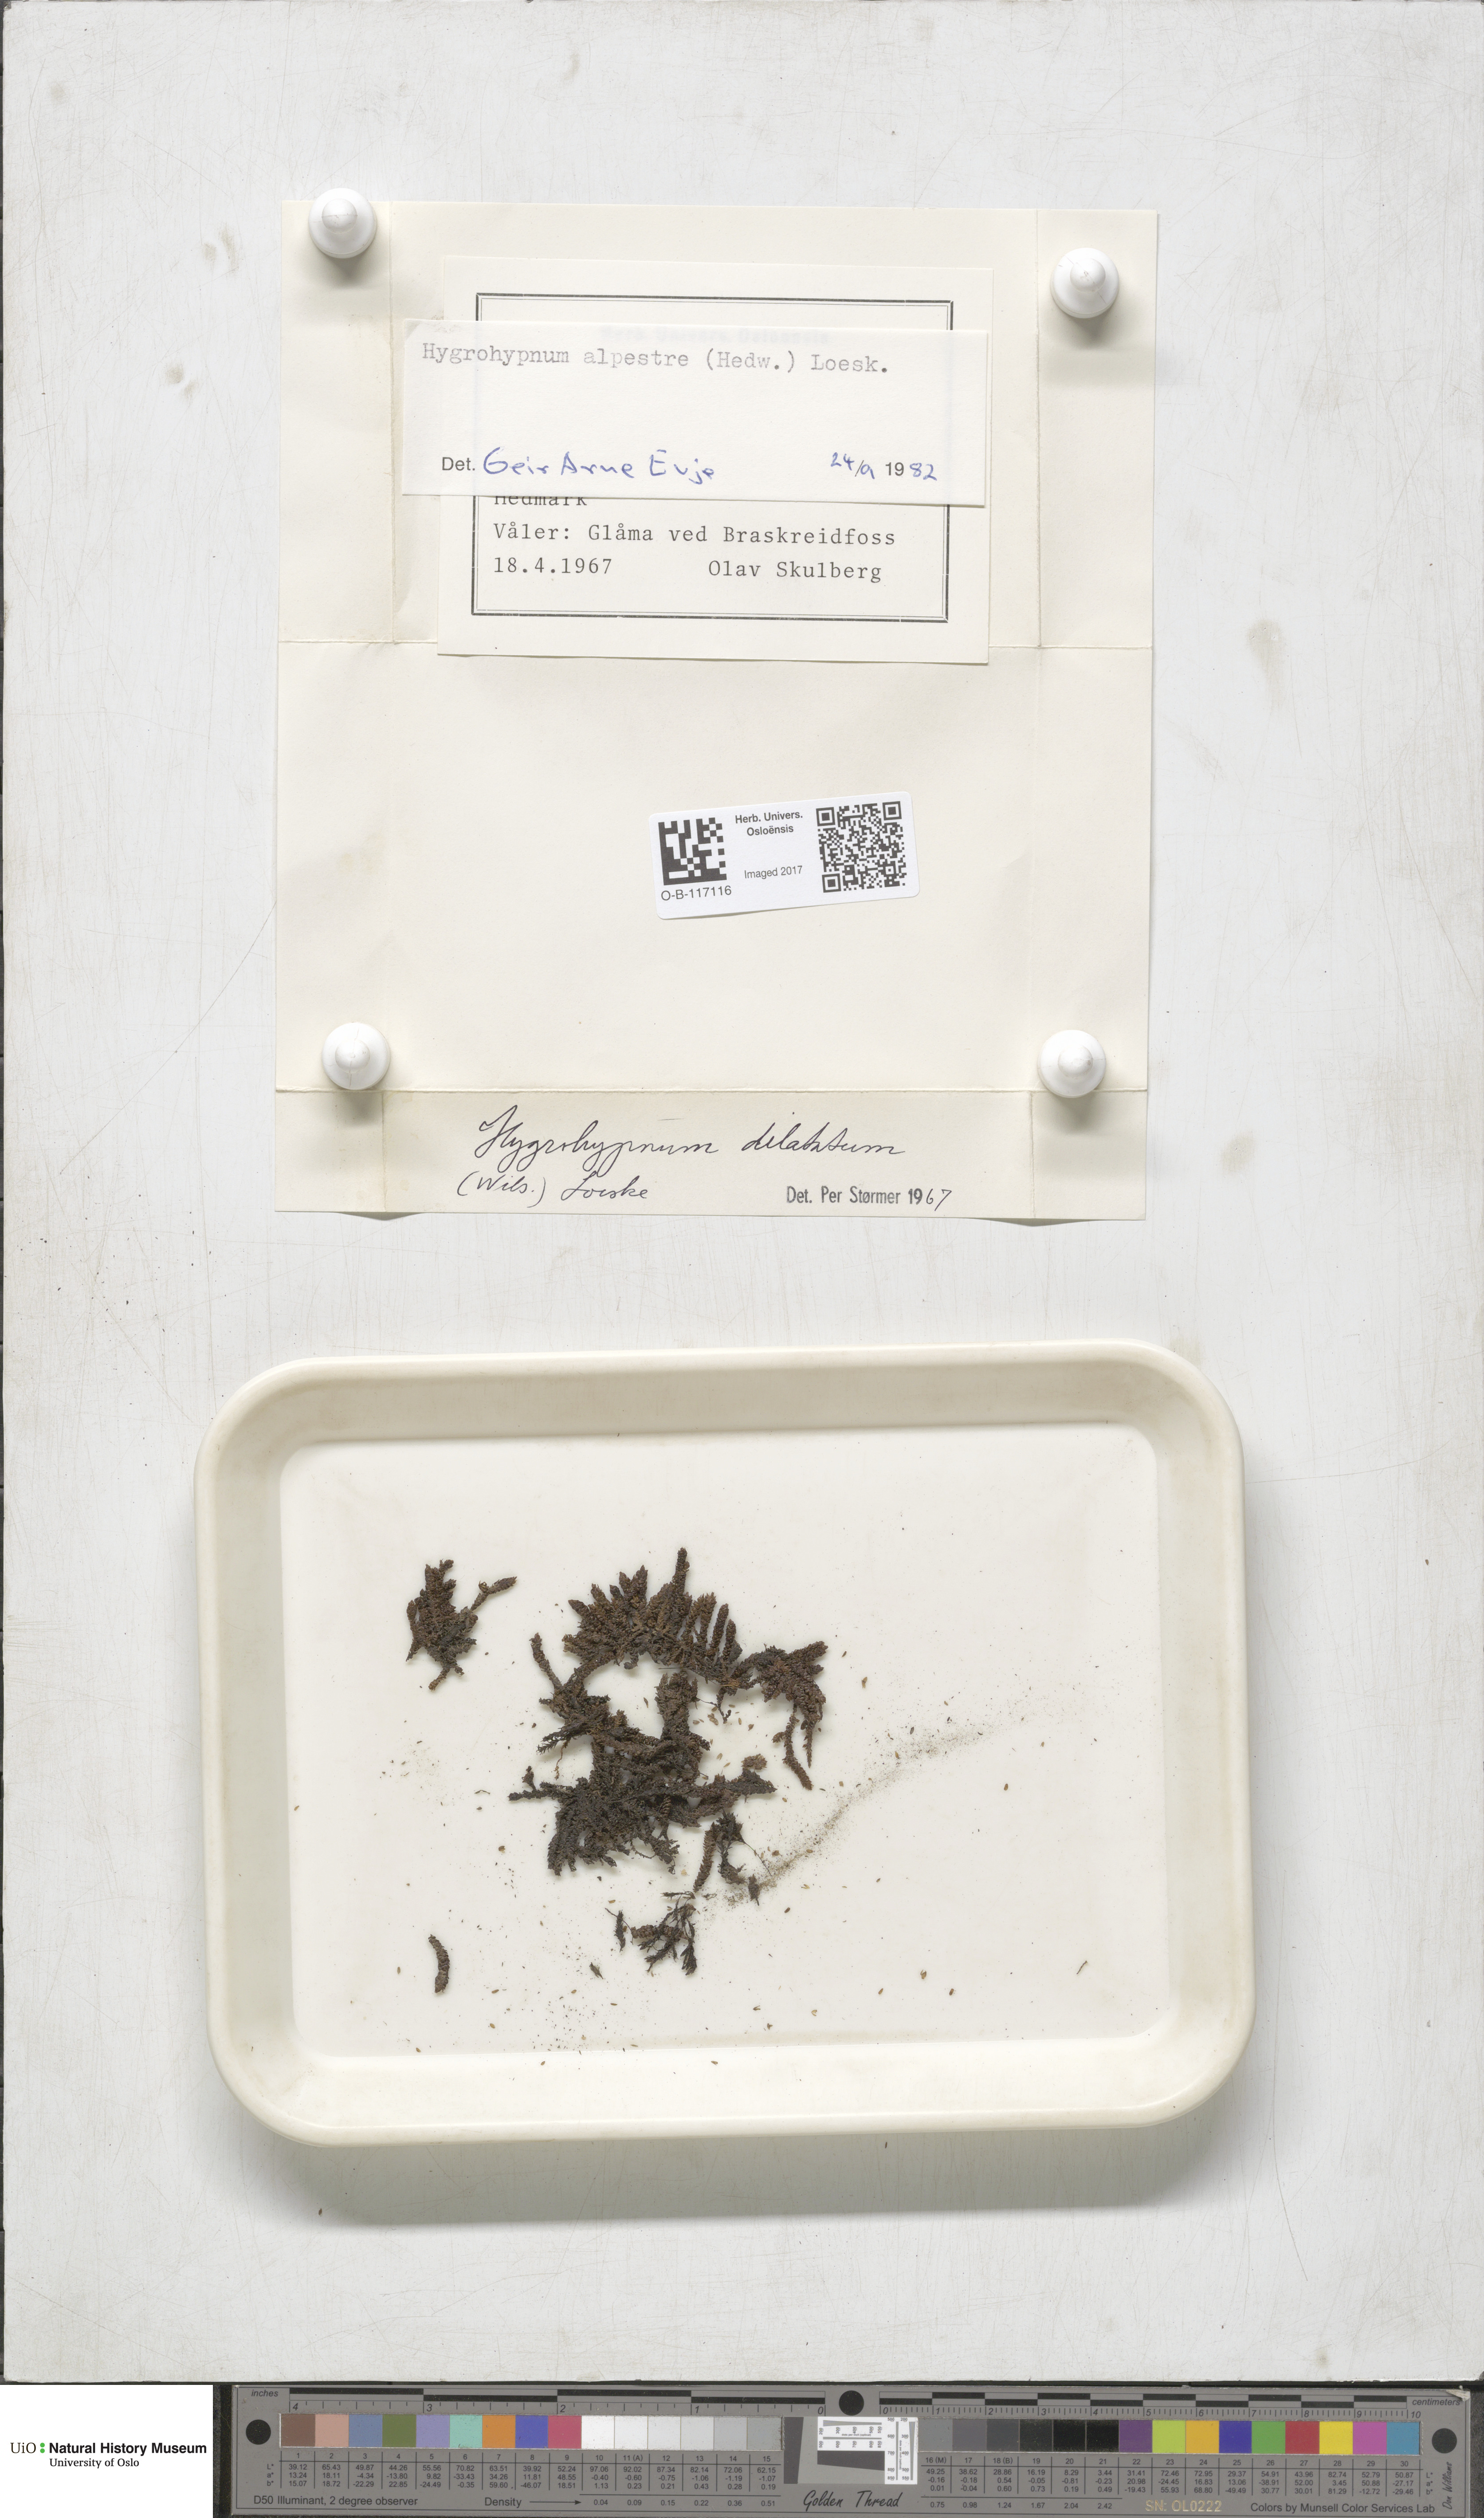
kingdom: Plantae
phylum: Bryophyta
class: Bryopsida
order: Hypnales
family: Amblystegiaceae
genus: Platyhypnum
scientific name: Platyhypnum alpestre
